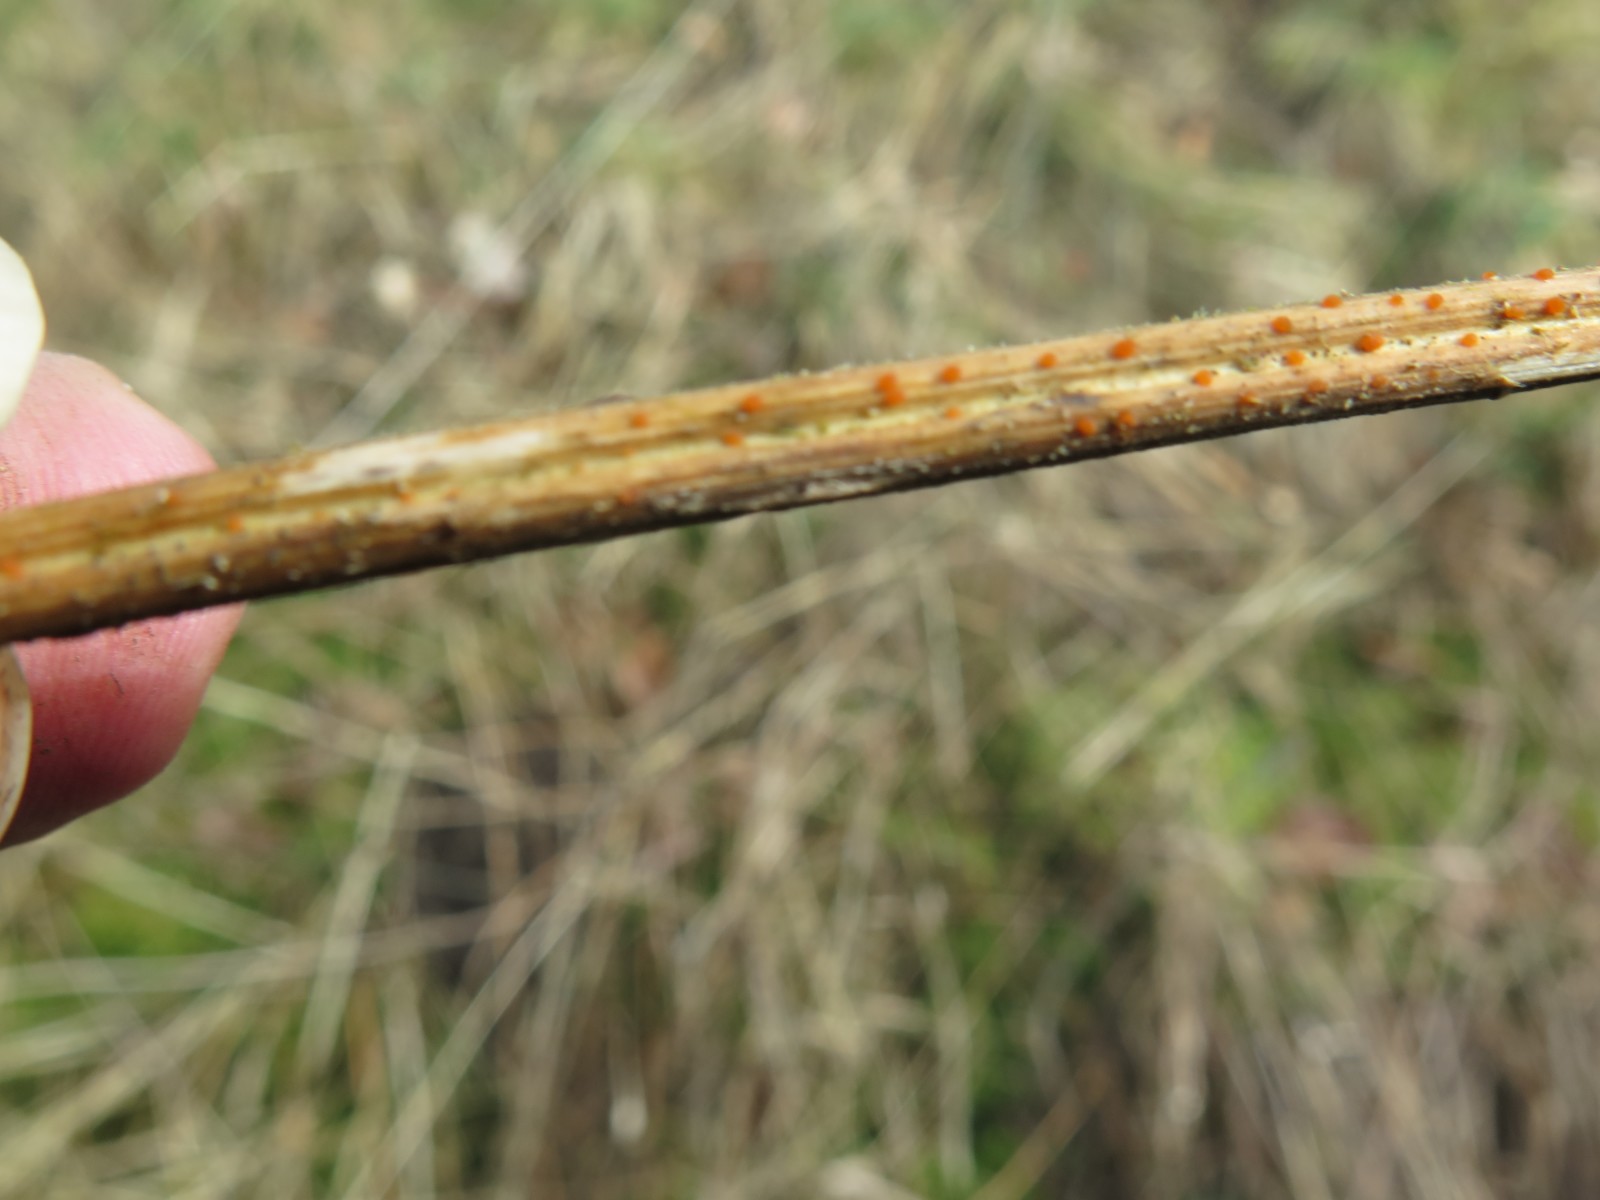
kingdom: Fungi
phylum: Ascomycota
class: Leotiomycetes
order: Helotiales
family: Calloriaceae
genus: Calloria
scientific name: Calloria urticae
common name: nælde-orangeskive
